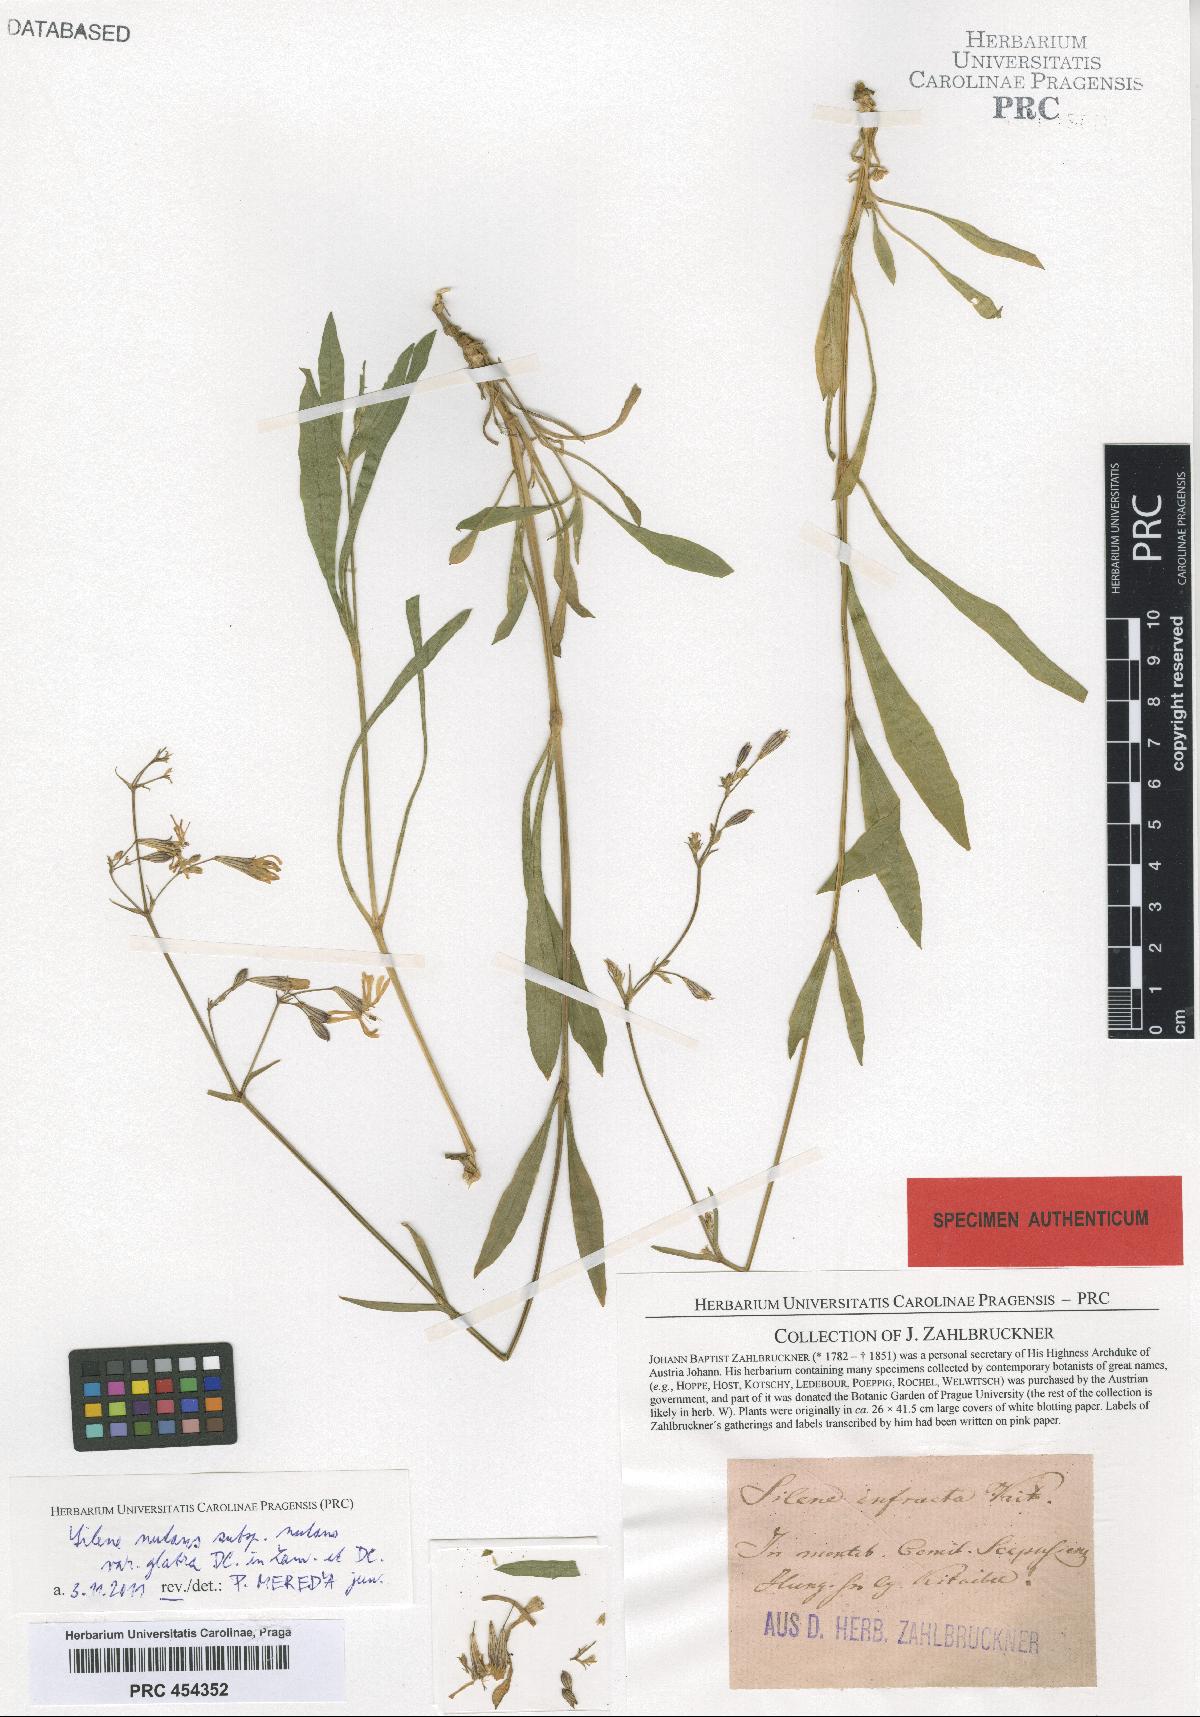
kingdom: Plantae
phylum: Tracheophyta
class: Magnoliopsida
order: Caryophyllales
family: Caryophyllaceae
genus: Silene
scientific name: Silene nutans
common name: Nottingham catchfly
